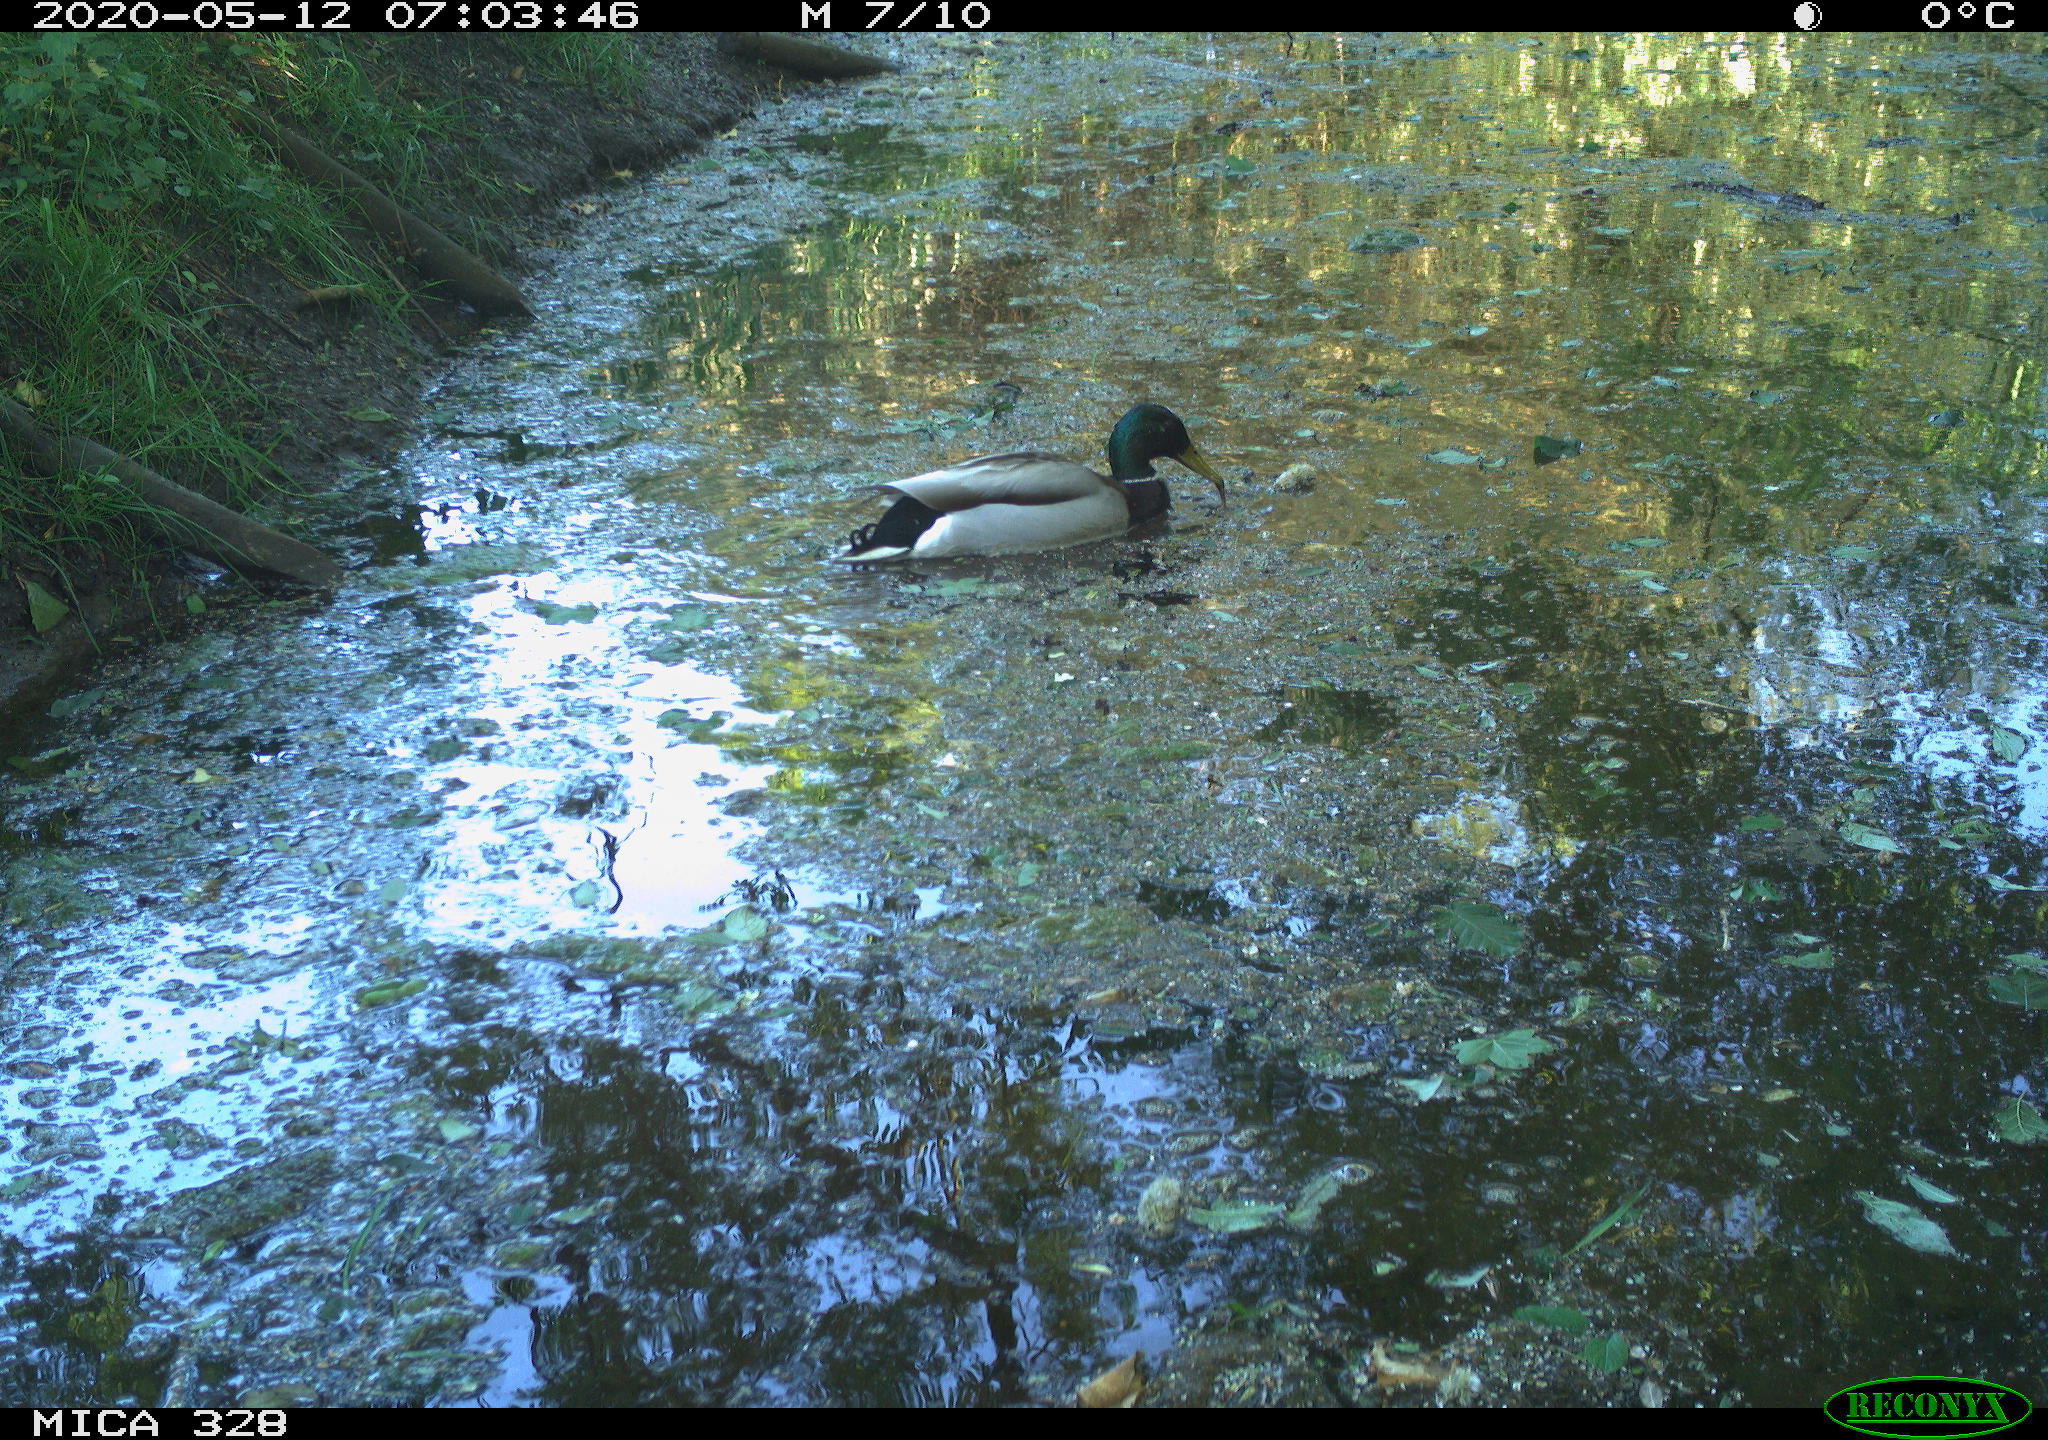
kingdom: Animalia
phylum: Chordata
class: Aves
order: Anseriformes
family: Anatidae
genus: Anas
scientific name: Anas platyrhynchos
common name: Mallard
